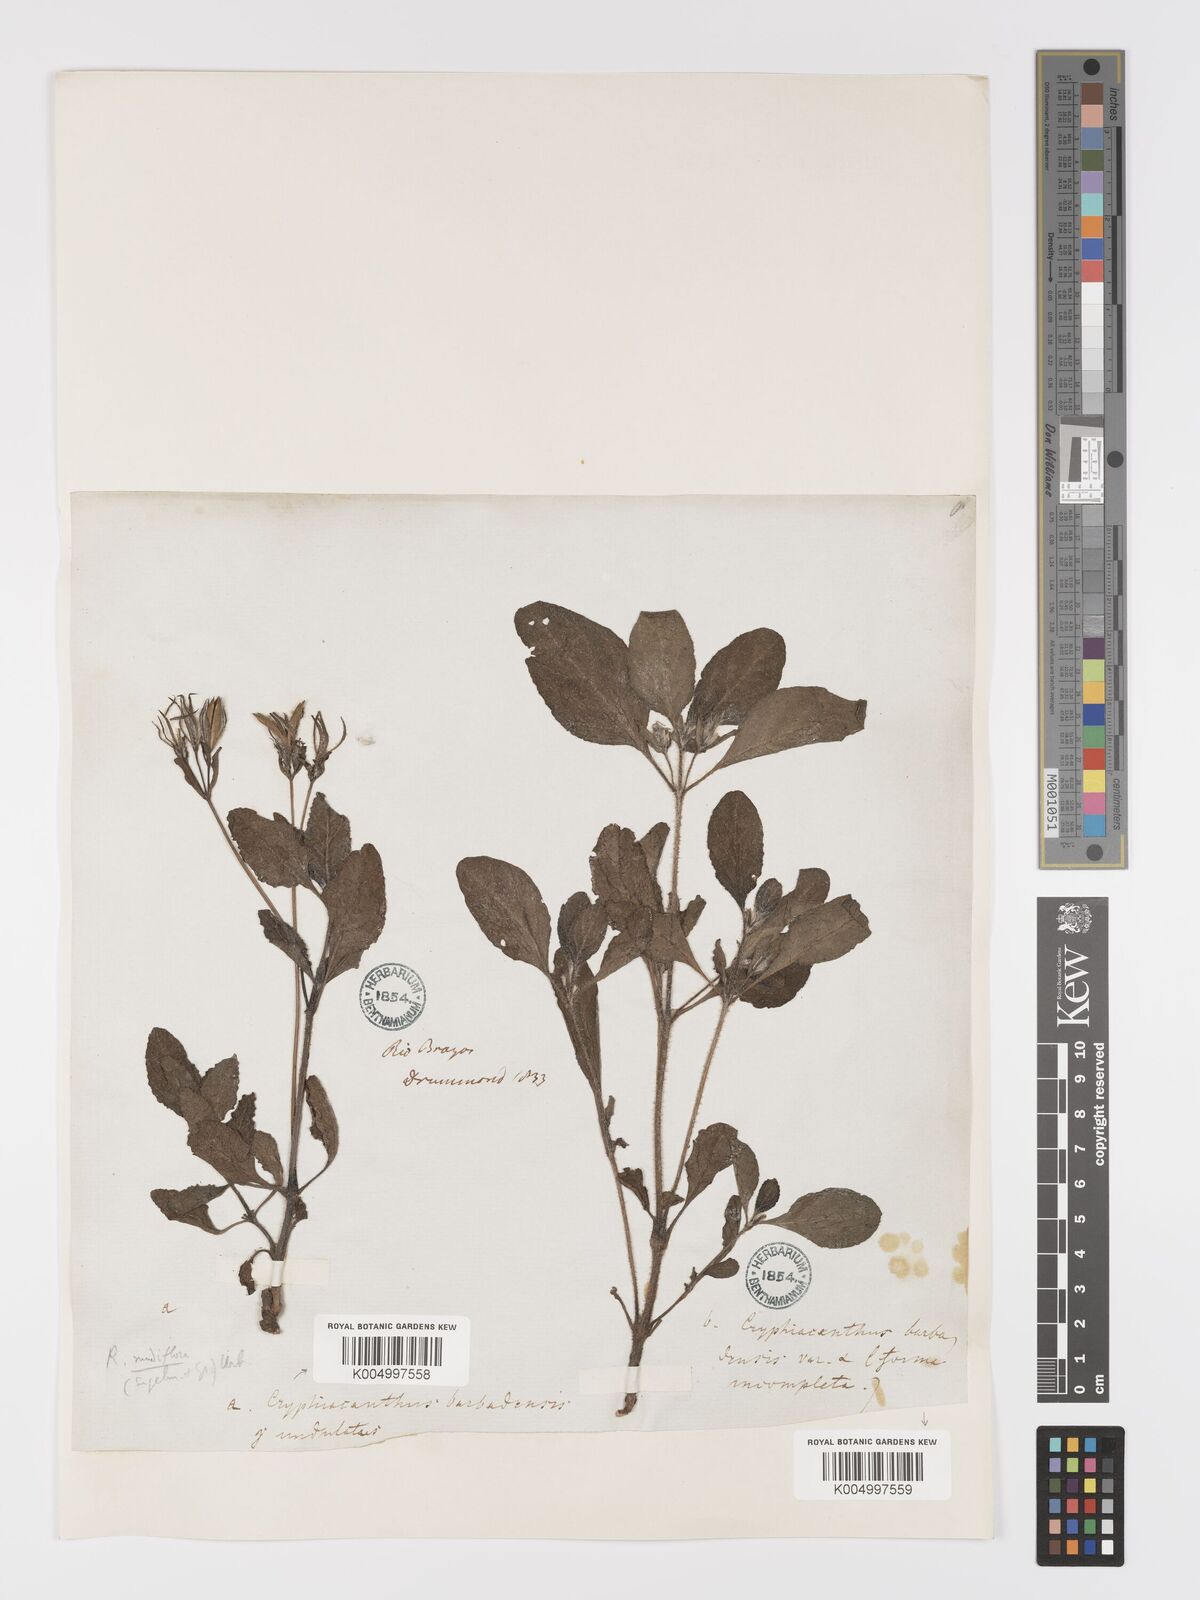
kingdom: Plantae
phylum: Tracheophyta
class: Magnoliopsida
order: Lamiales
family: Acanthaceae
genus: Ruellia
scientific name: Ruellia tuberosa
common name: Devil's bit
